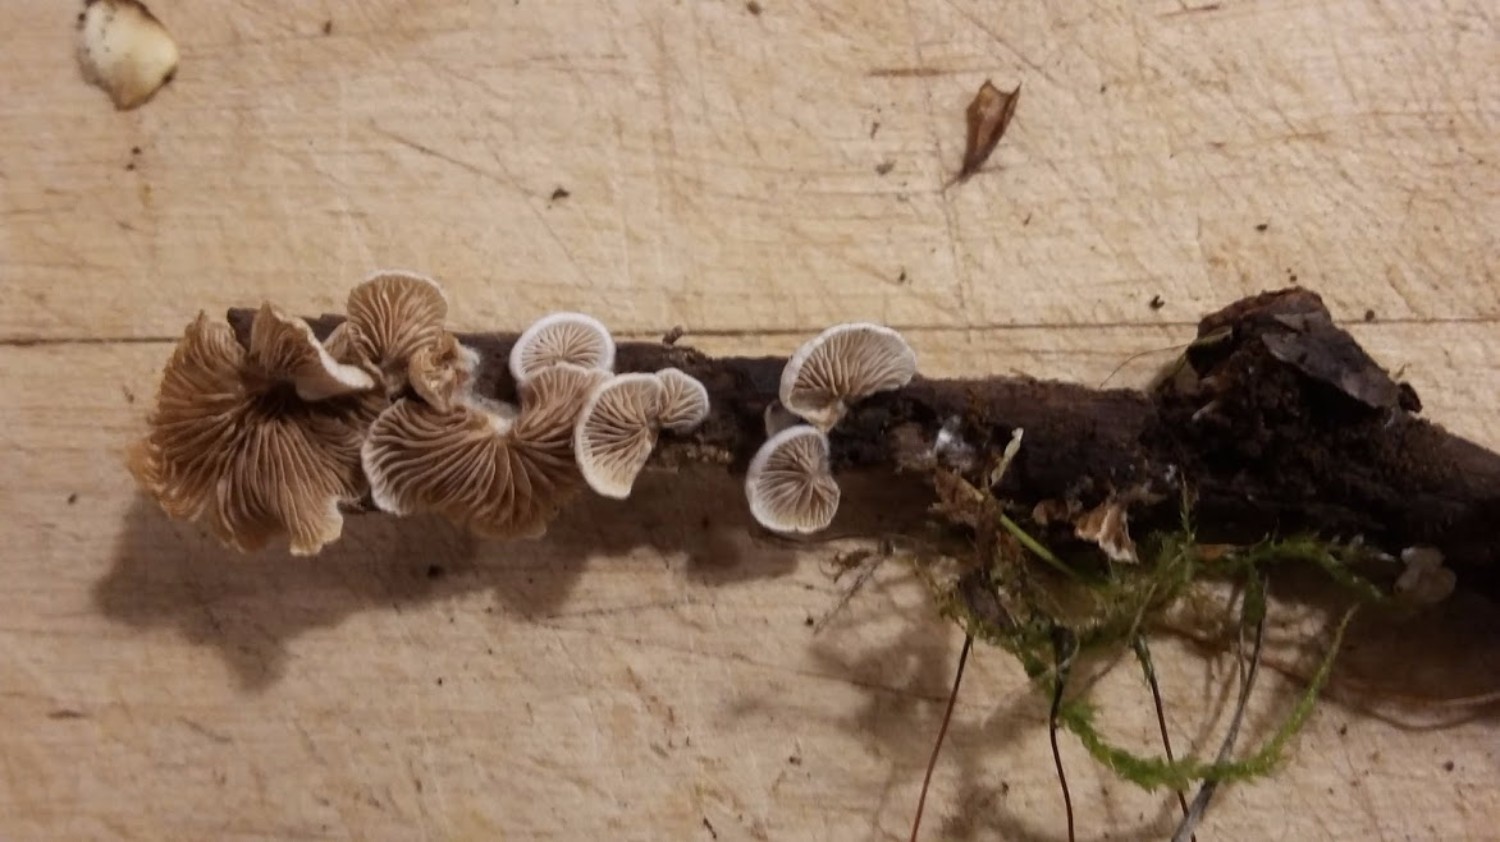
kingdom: Fungi
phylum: Basidiomycota
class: Agaricomycetes
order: Agaricales
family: Crepidotaceae
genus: Crepidotus
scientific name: Crepidotus
